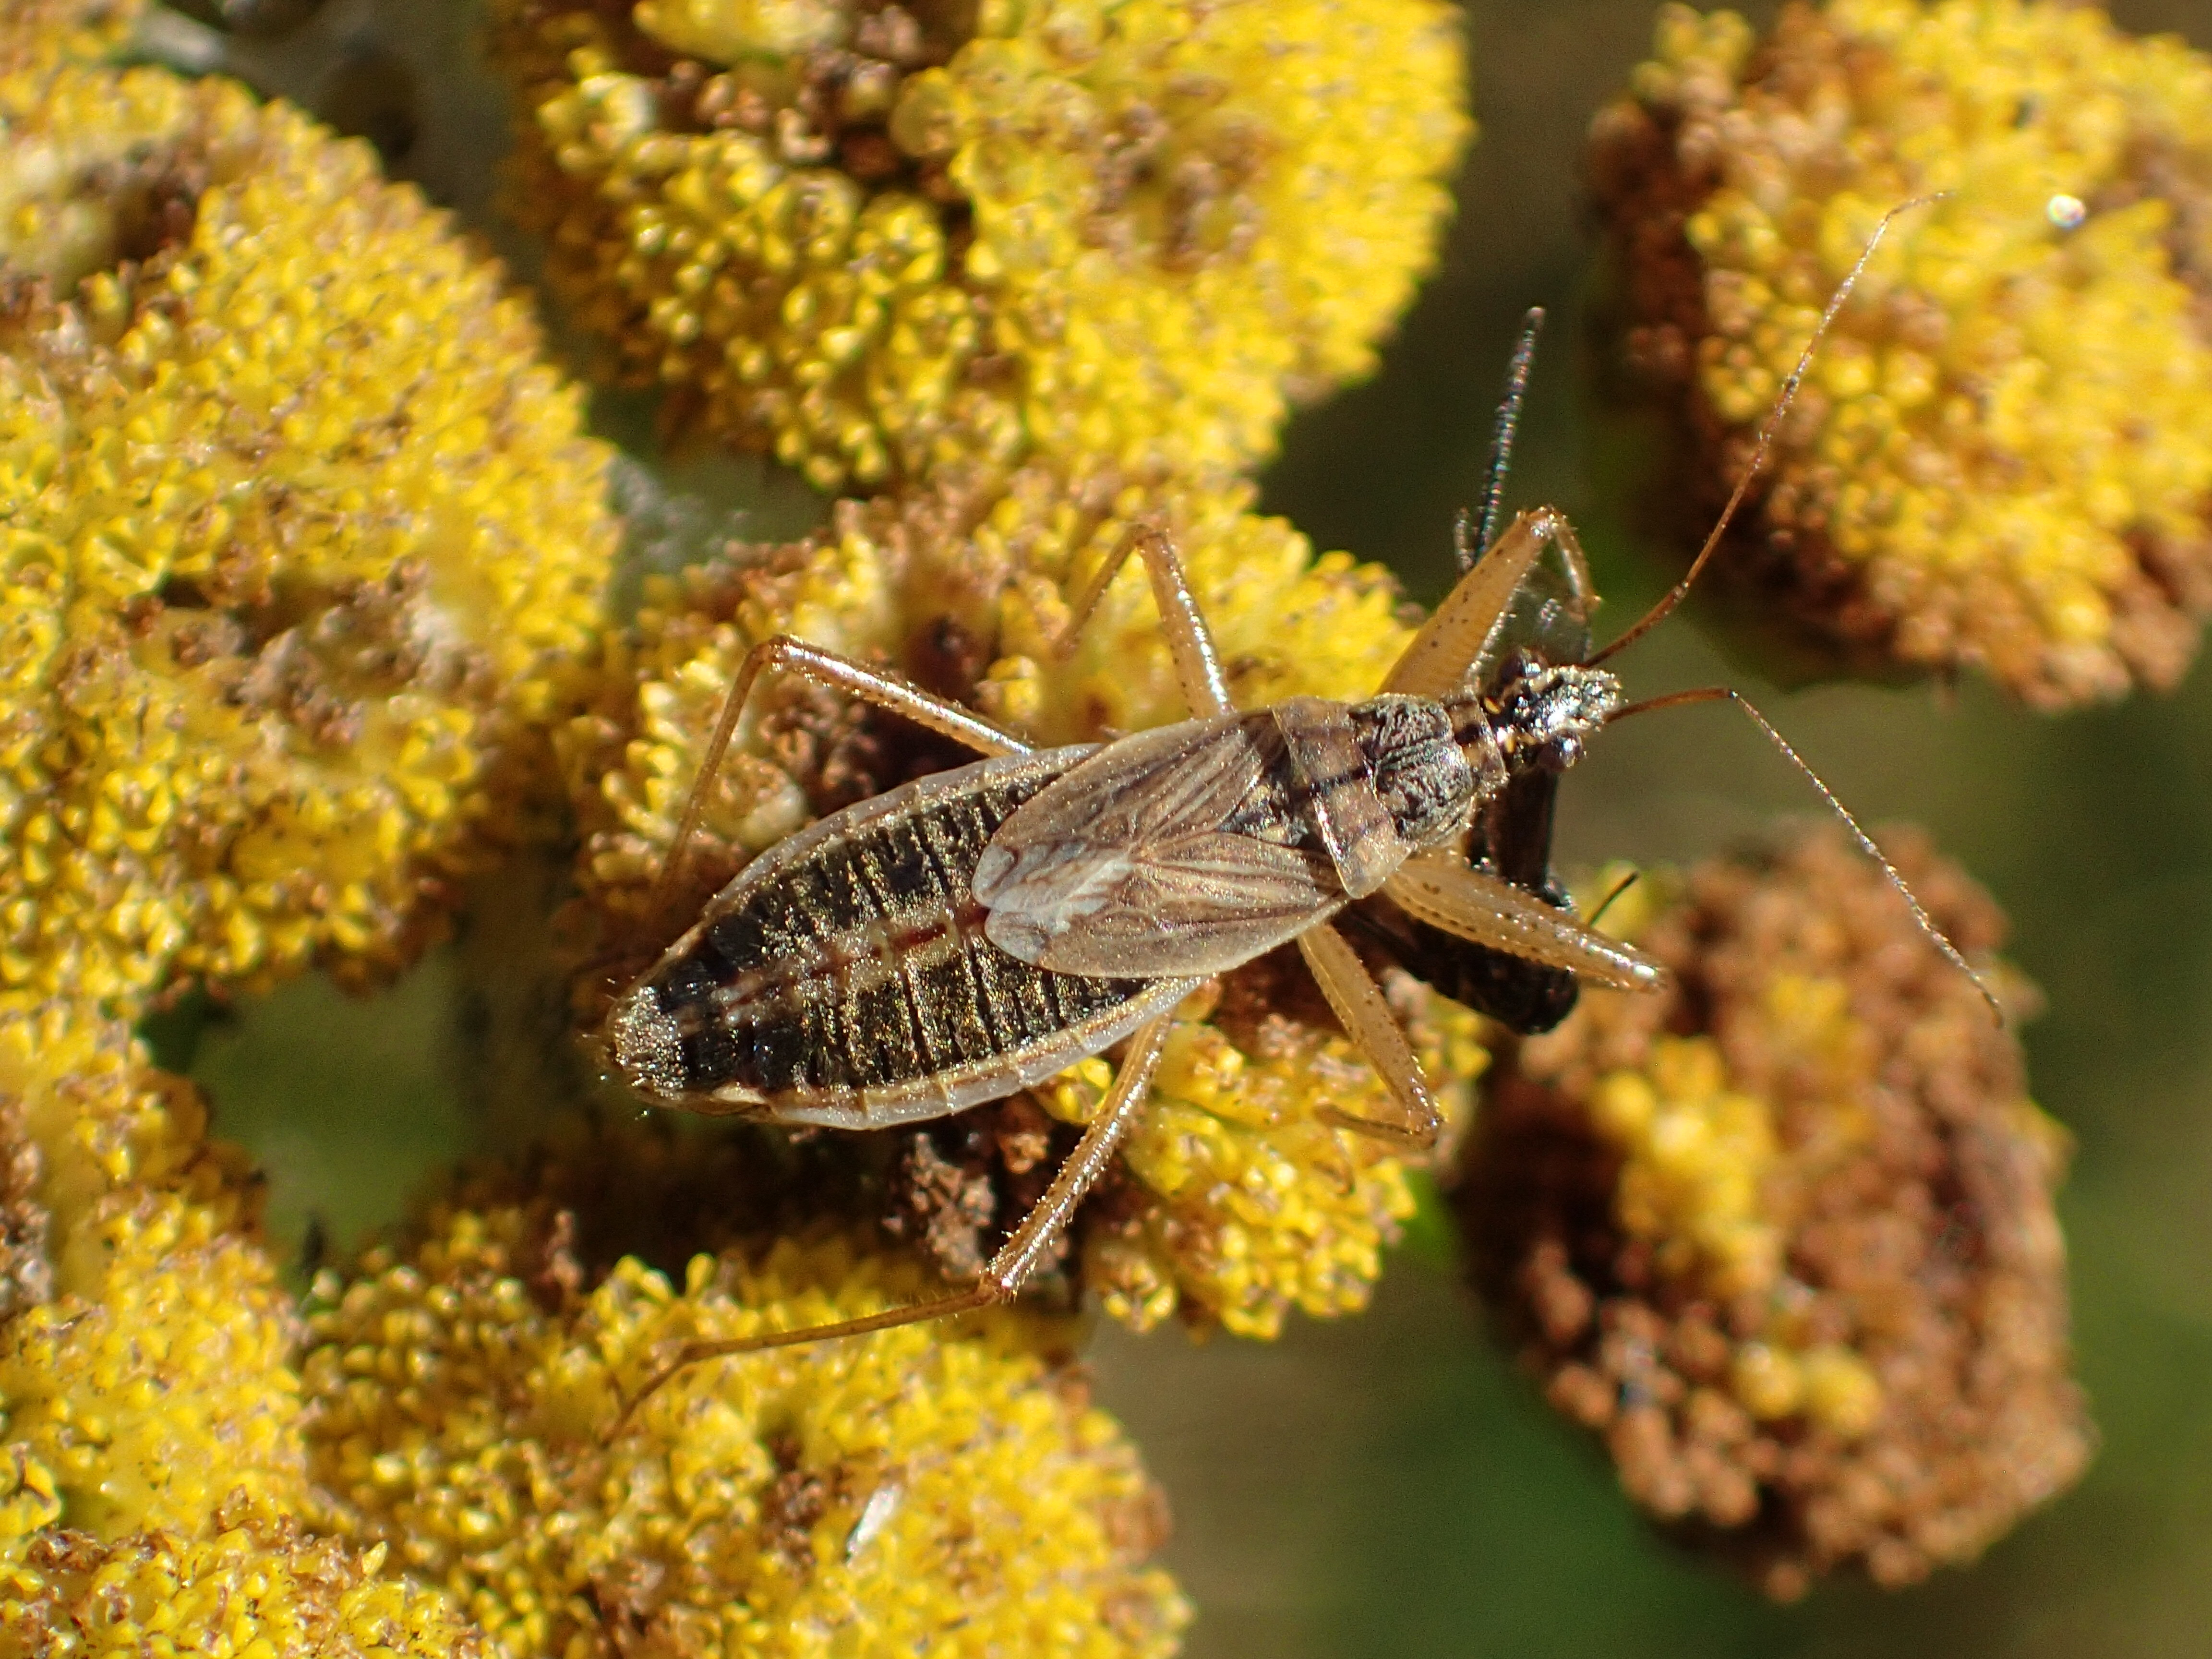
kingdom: Animalia
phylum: Arthropoda
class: Insecta
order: Hemiptera
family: Nabidae
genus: Nabis
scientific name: Nabis flavomarginatus
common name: Broad damselbug
